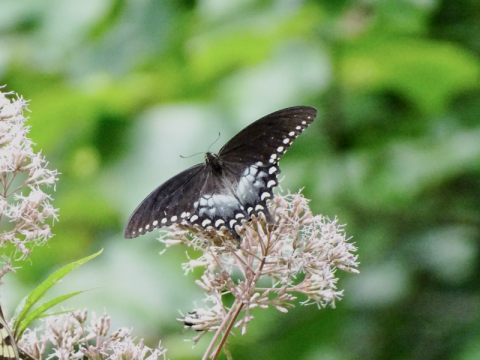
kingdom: Animalia
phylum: Arthropoda
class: Insecta
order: Lepidoptera
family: Papilionidae
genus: Pterourus
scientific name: Pterourus troilus
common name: Spicebush Swallowtail
